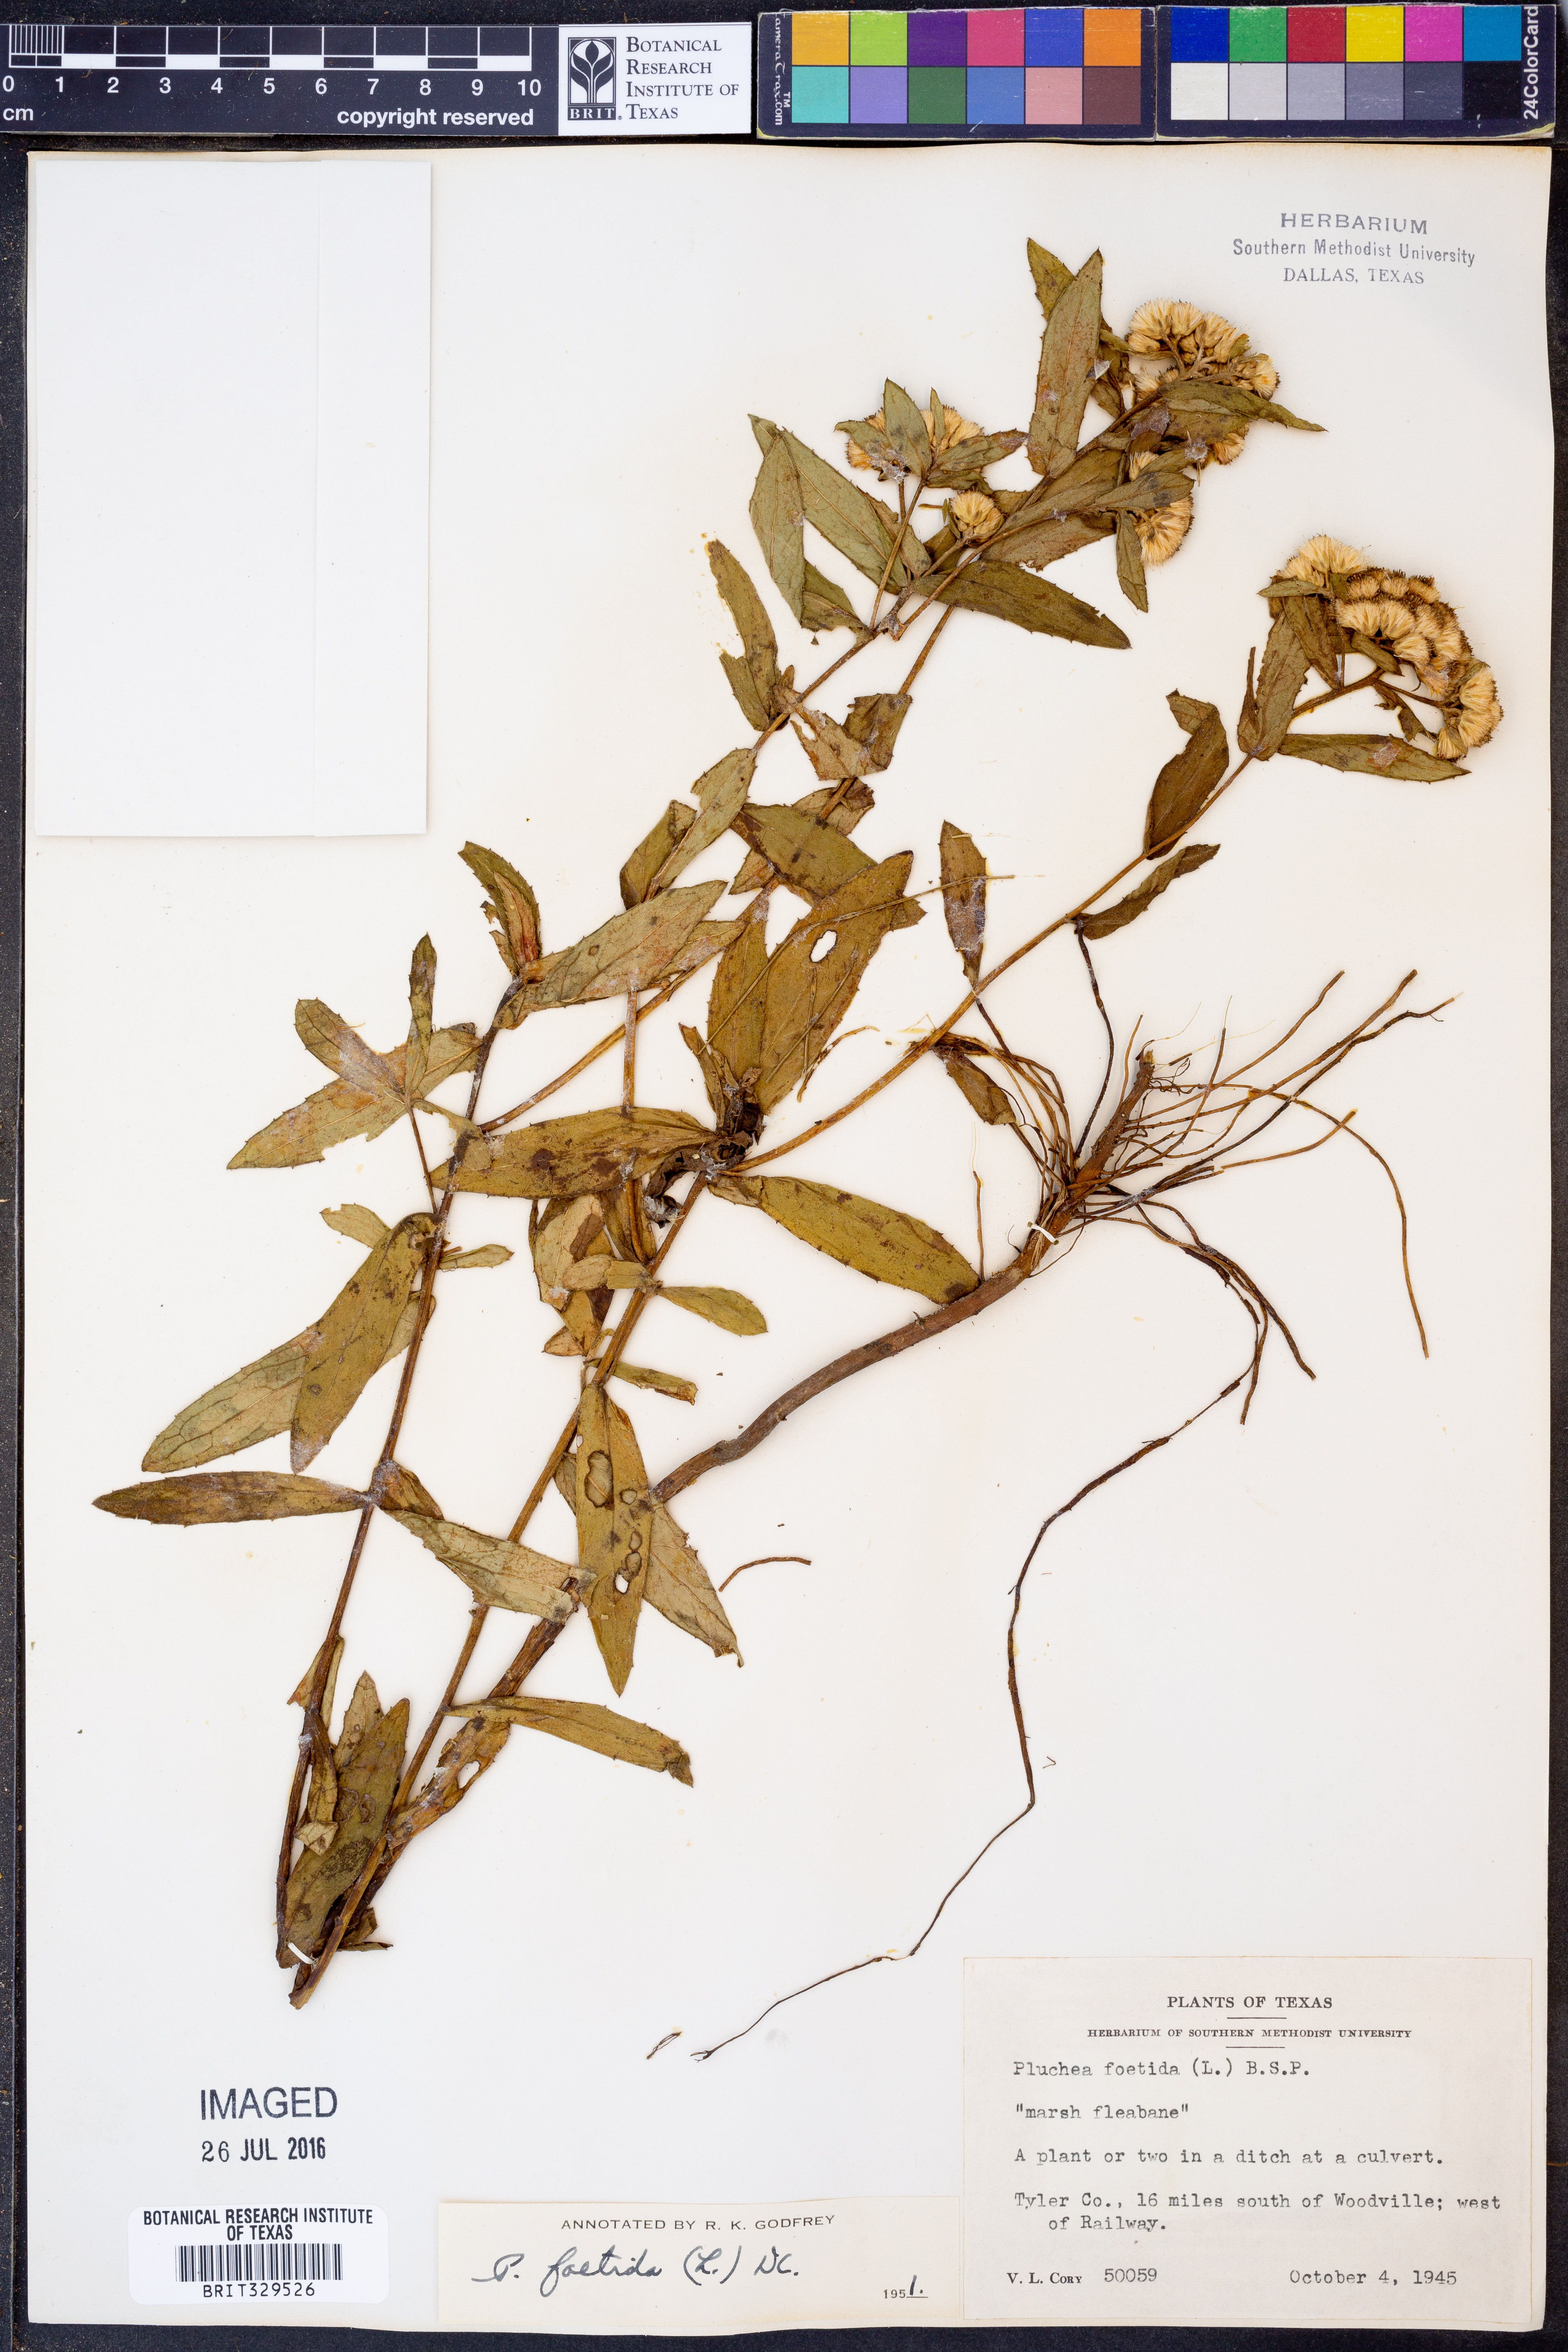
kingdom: Plantae
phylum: Tracheophyta
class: Magnoliopsida
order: Asterales
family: Asteraceae
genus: Pluchea
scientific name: Pluchea foetida
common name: Stinking camphorweed
